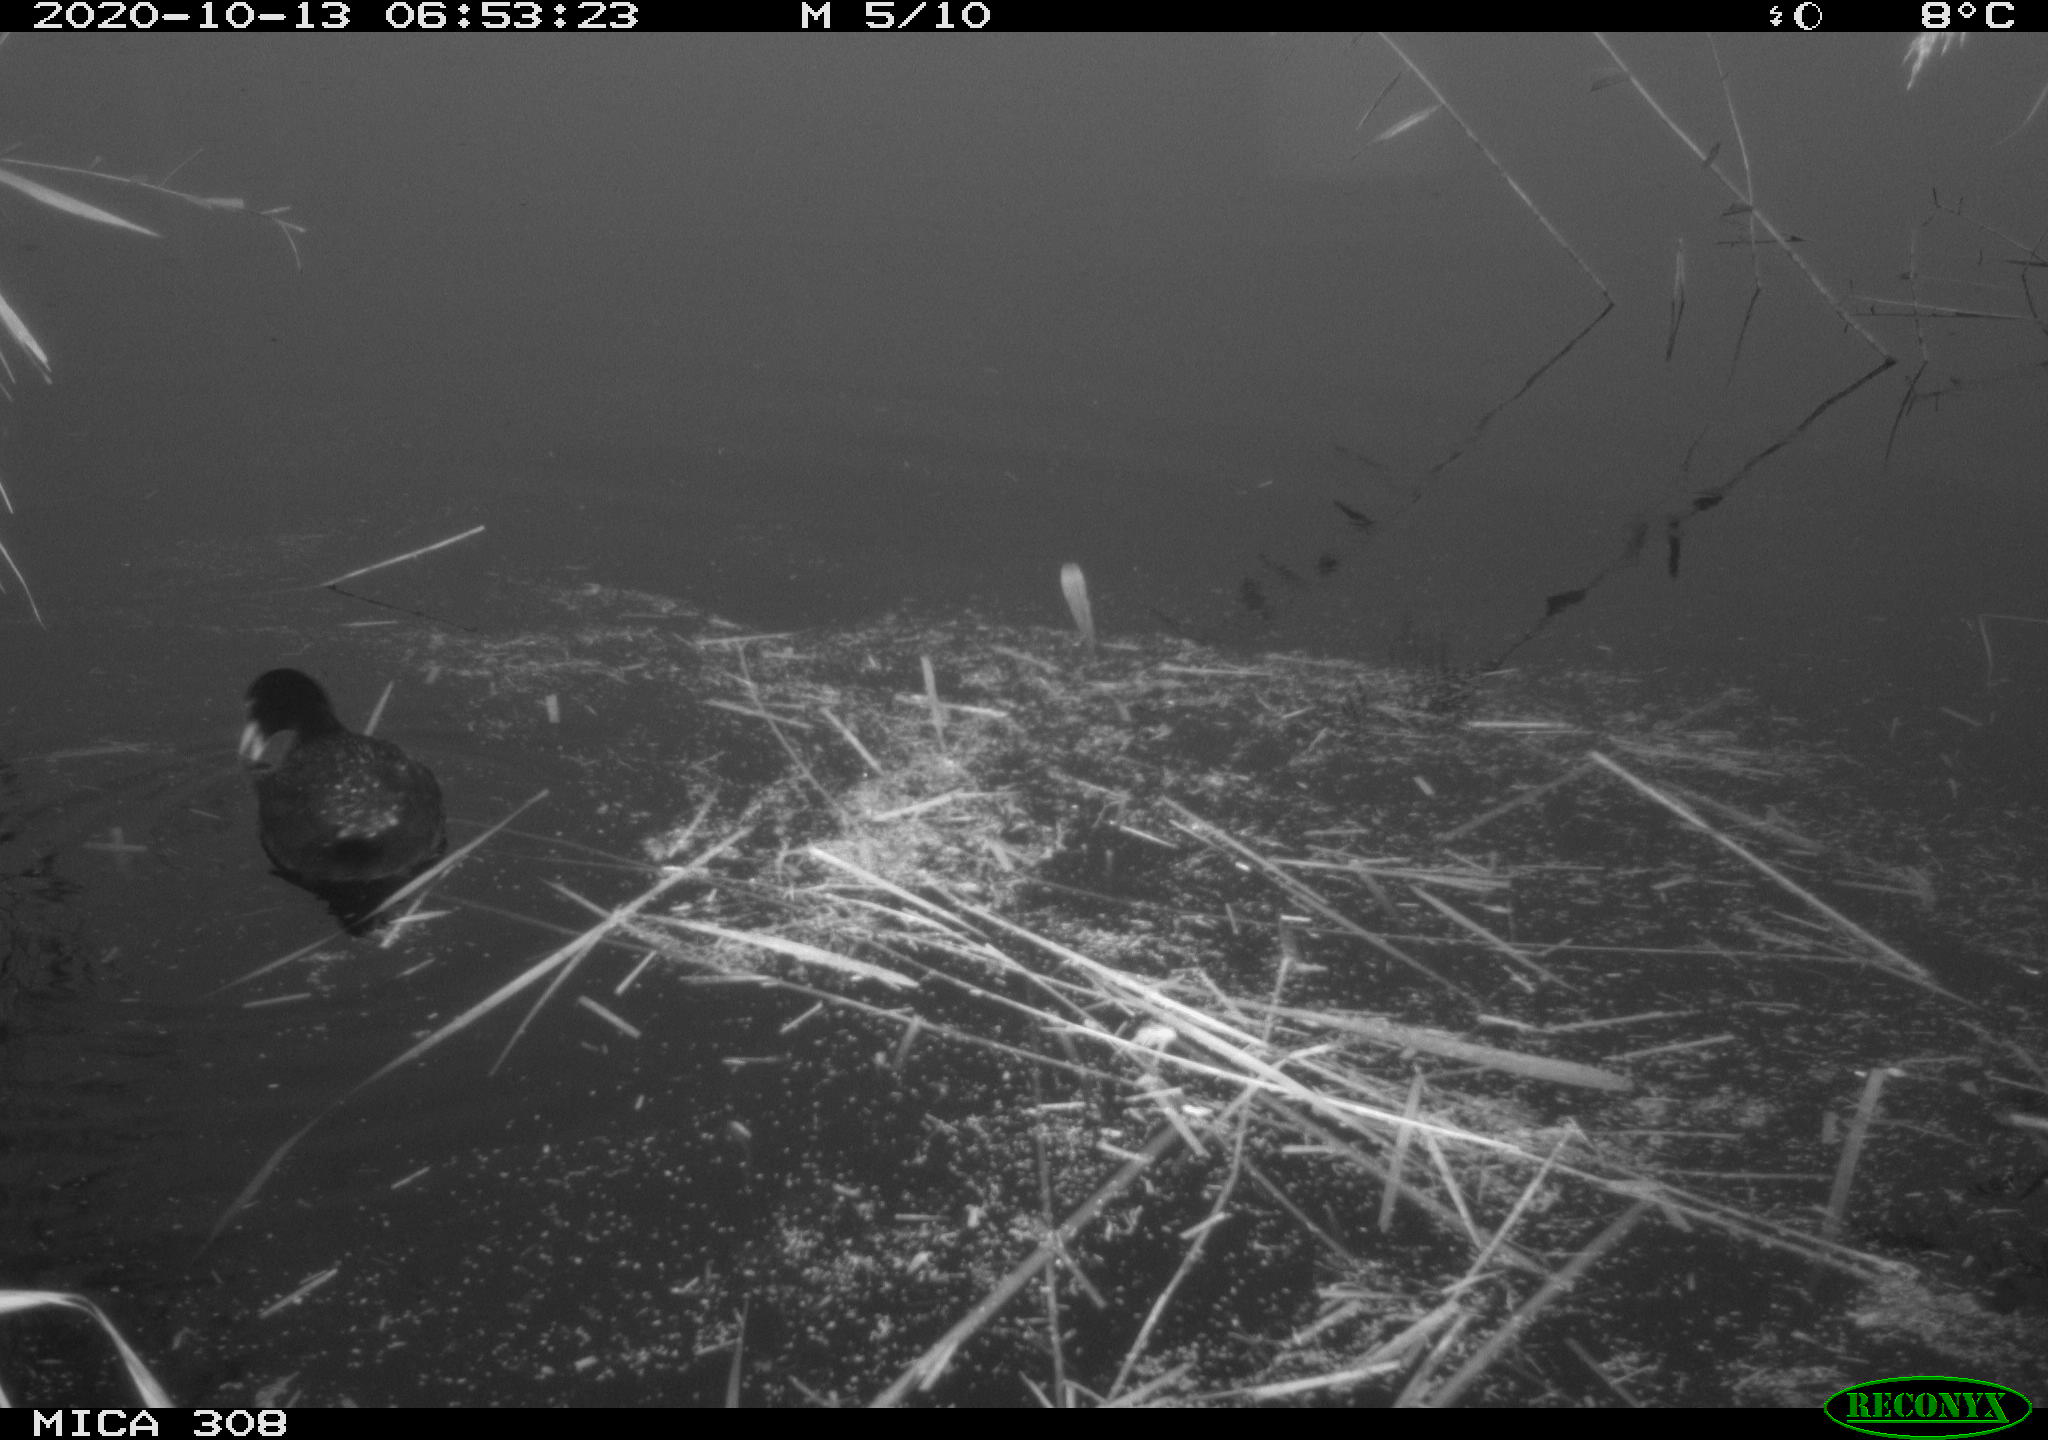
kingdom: Animalia
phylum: Chordata
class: Aves
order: Gruiformes
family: Rallidae
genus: Fulica
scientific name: Fulica atra
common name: Eurasian coot
